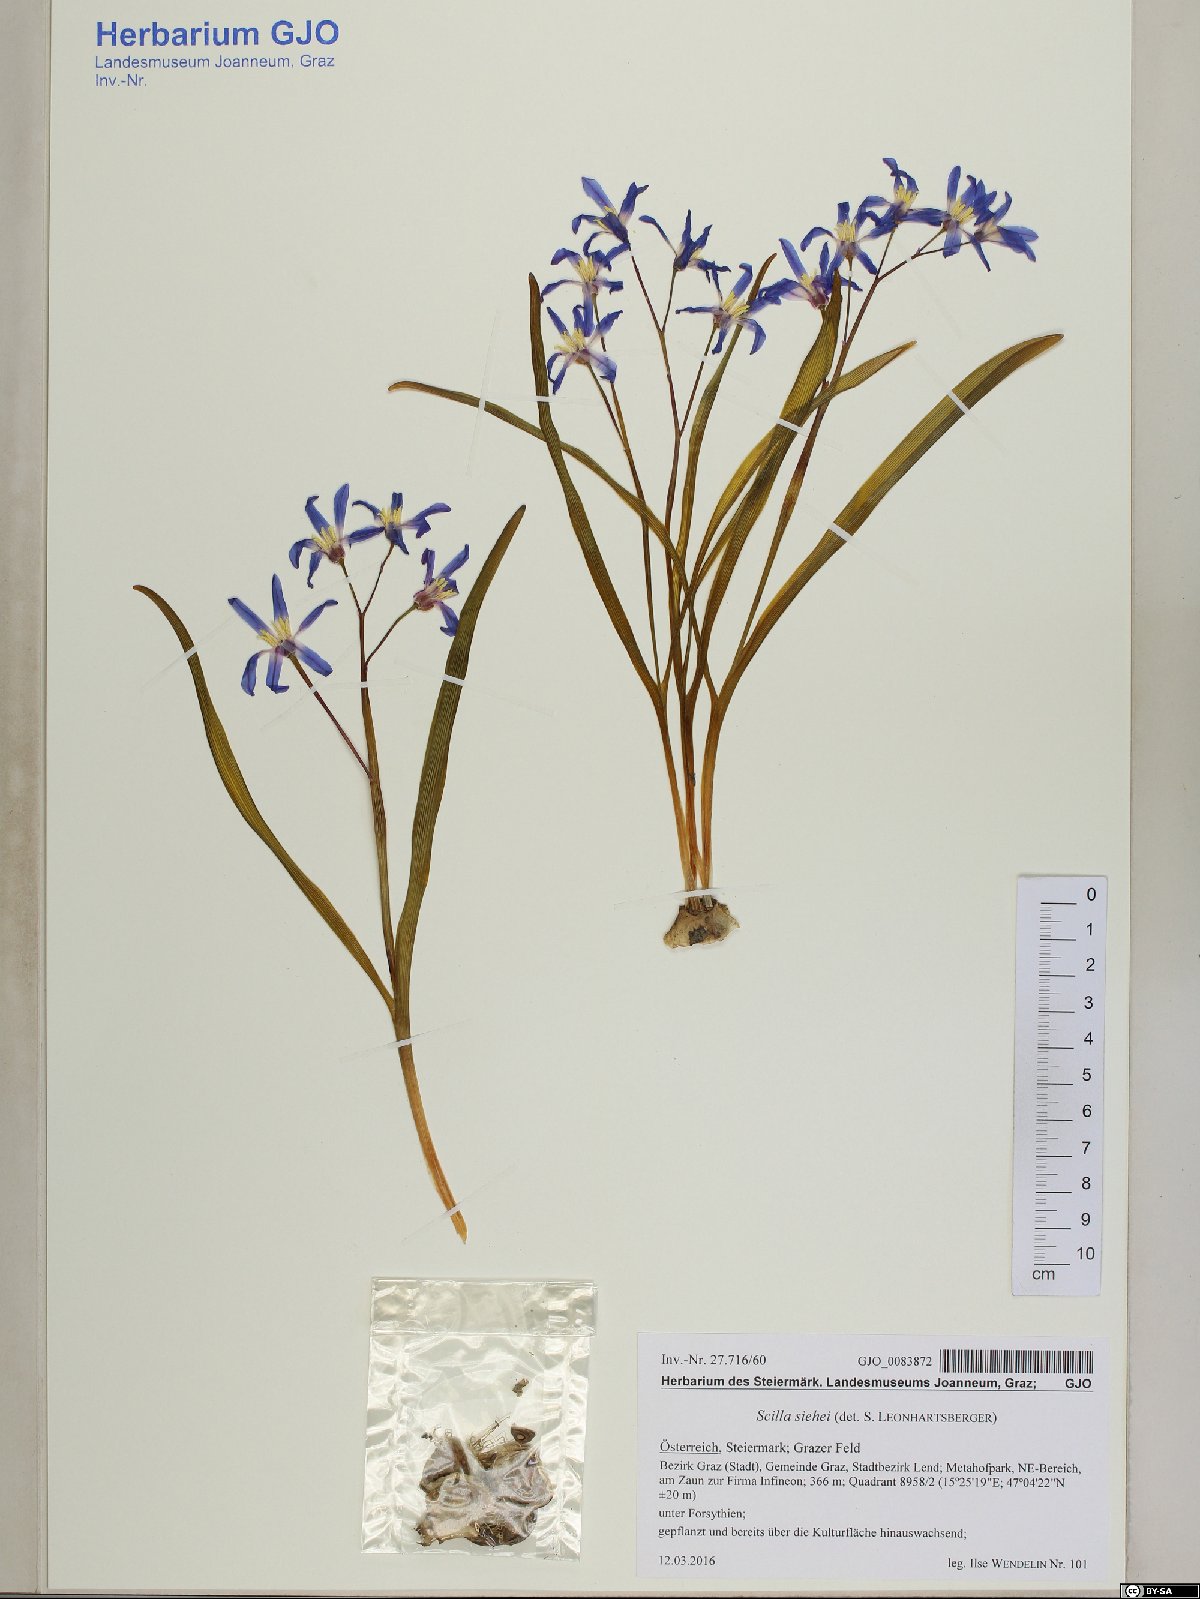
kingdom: Plantae
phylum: Tracheophyta
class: Liliopsida
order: Asparagales
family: Asparagaceae
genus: Scilla
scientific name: Scilla forbesii
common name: Glory-of-the-snow
